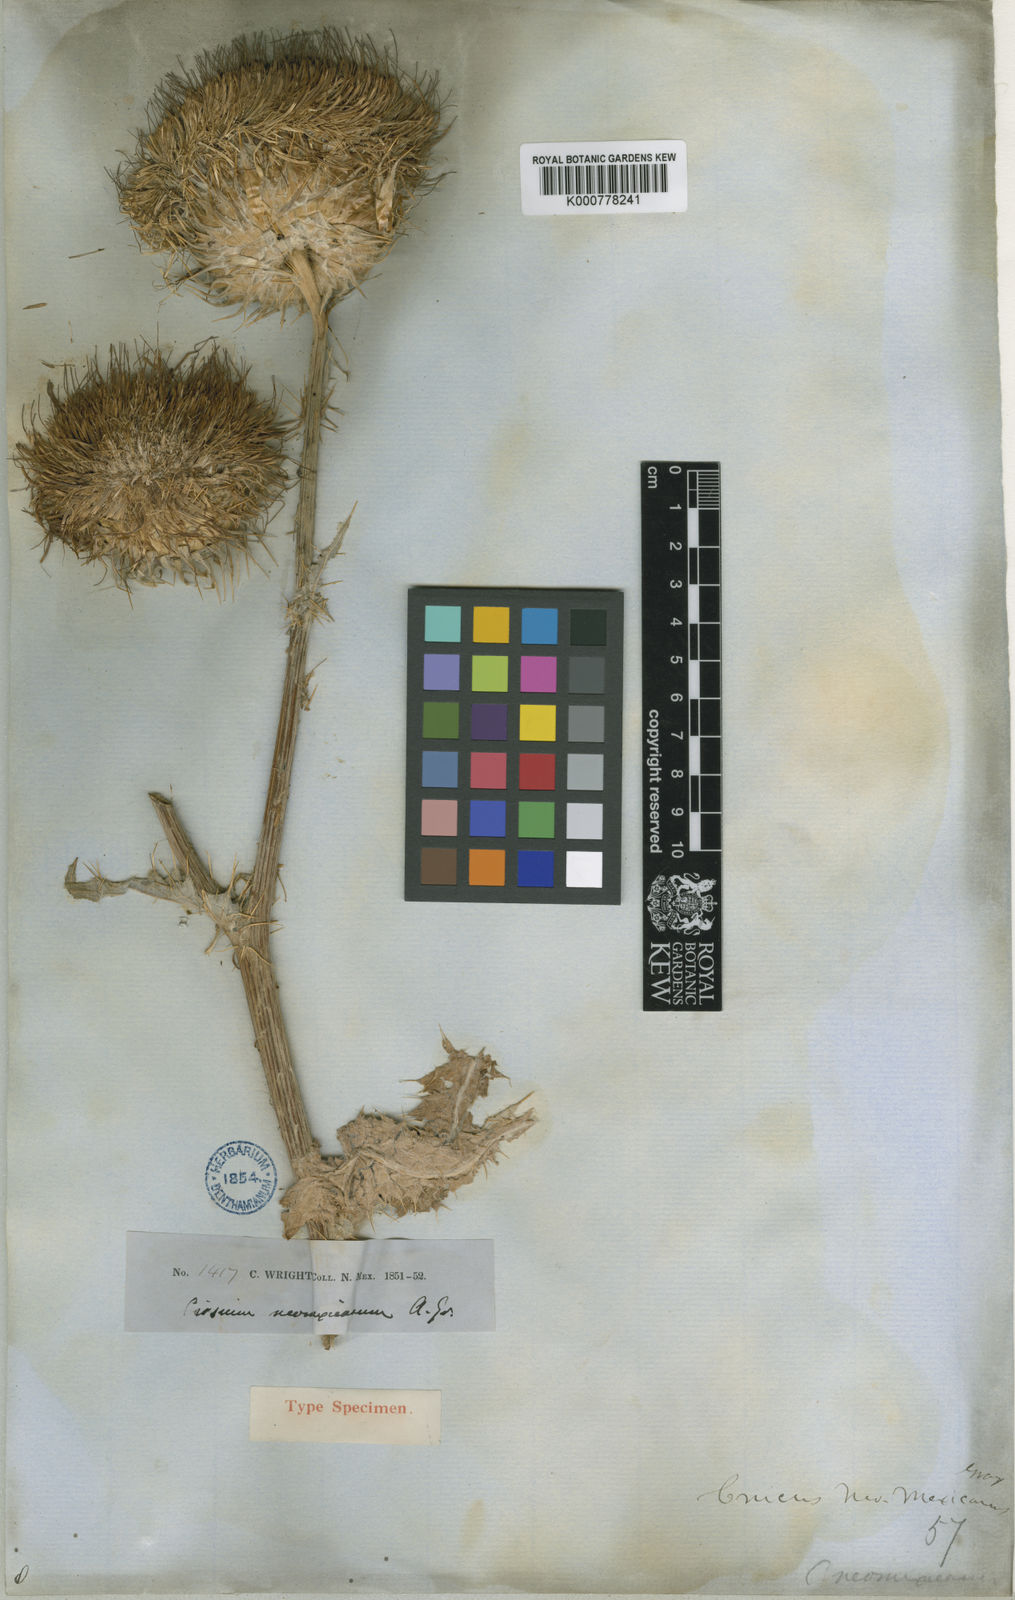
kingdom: Plantae
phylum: Tracheophyta
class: Magnoliopsida
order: Asterales
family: Asteraceae
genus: Cirsium
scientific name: Cirsium
